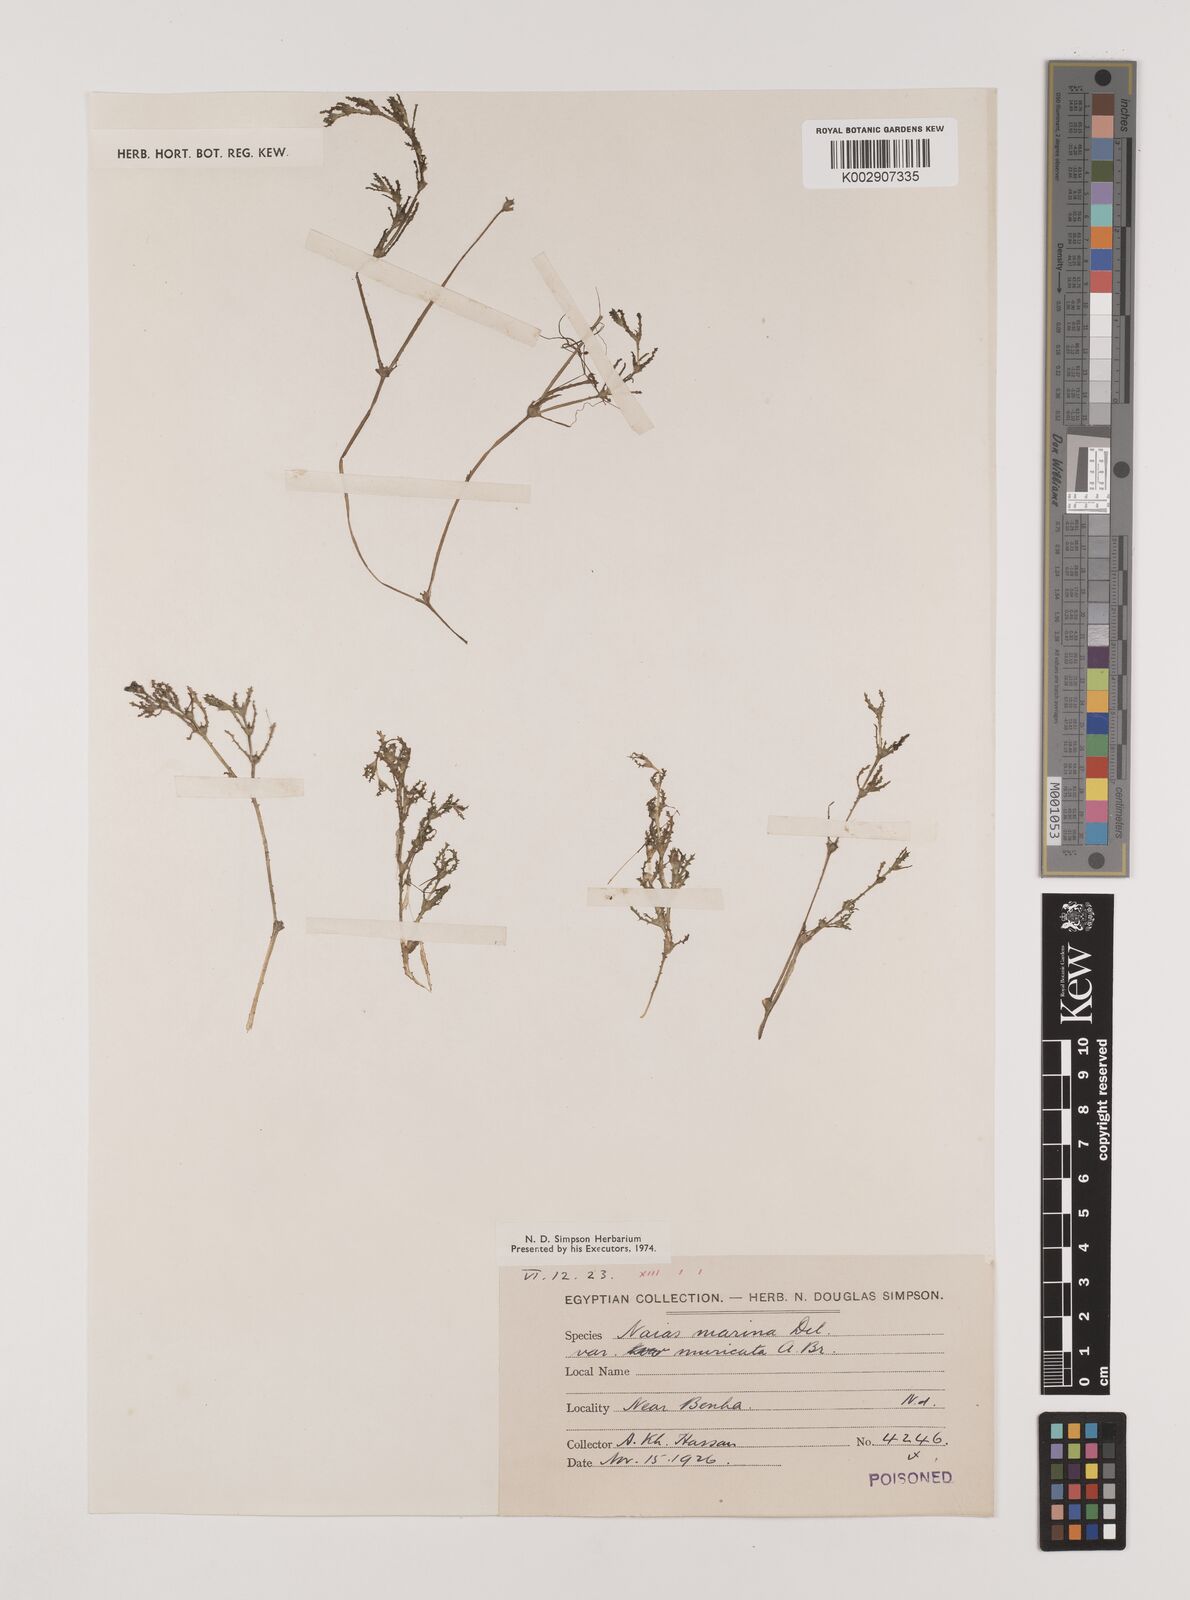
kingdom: Plantae
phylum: Tracheophyta
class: Liliopsida
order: Alismatales
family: Hydrocharitaceae
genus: Najas
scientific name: Najas marina
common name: Holly-leaved naiad
